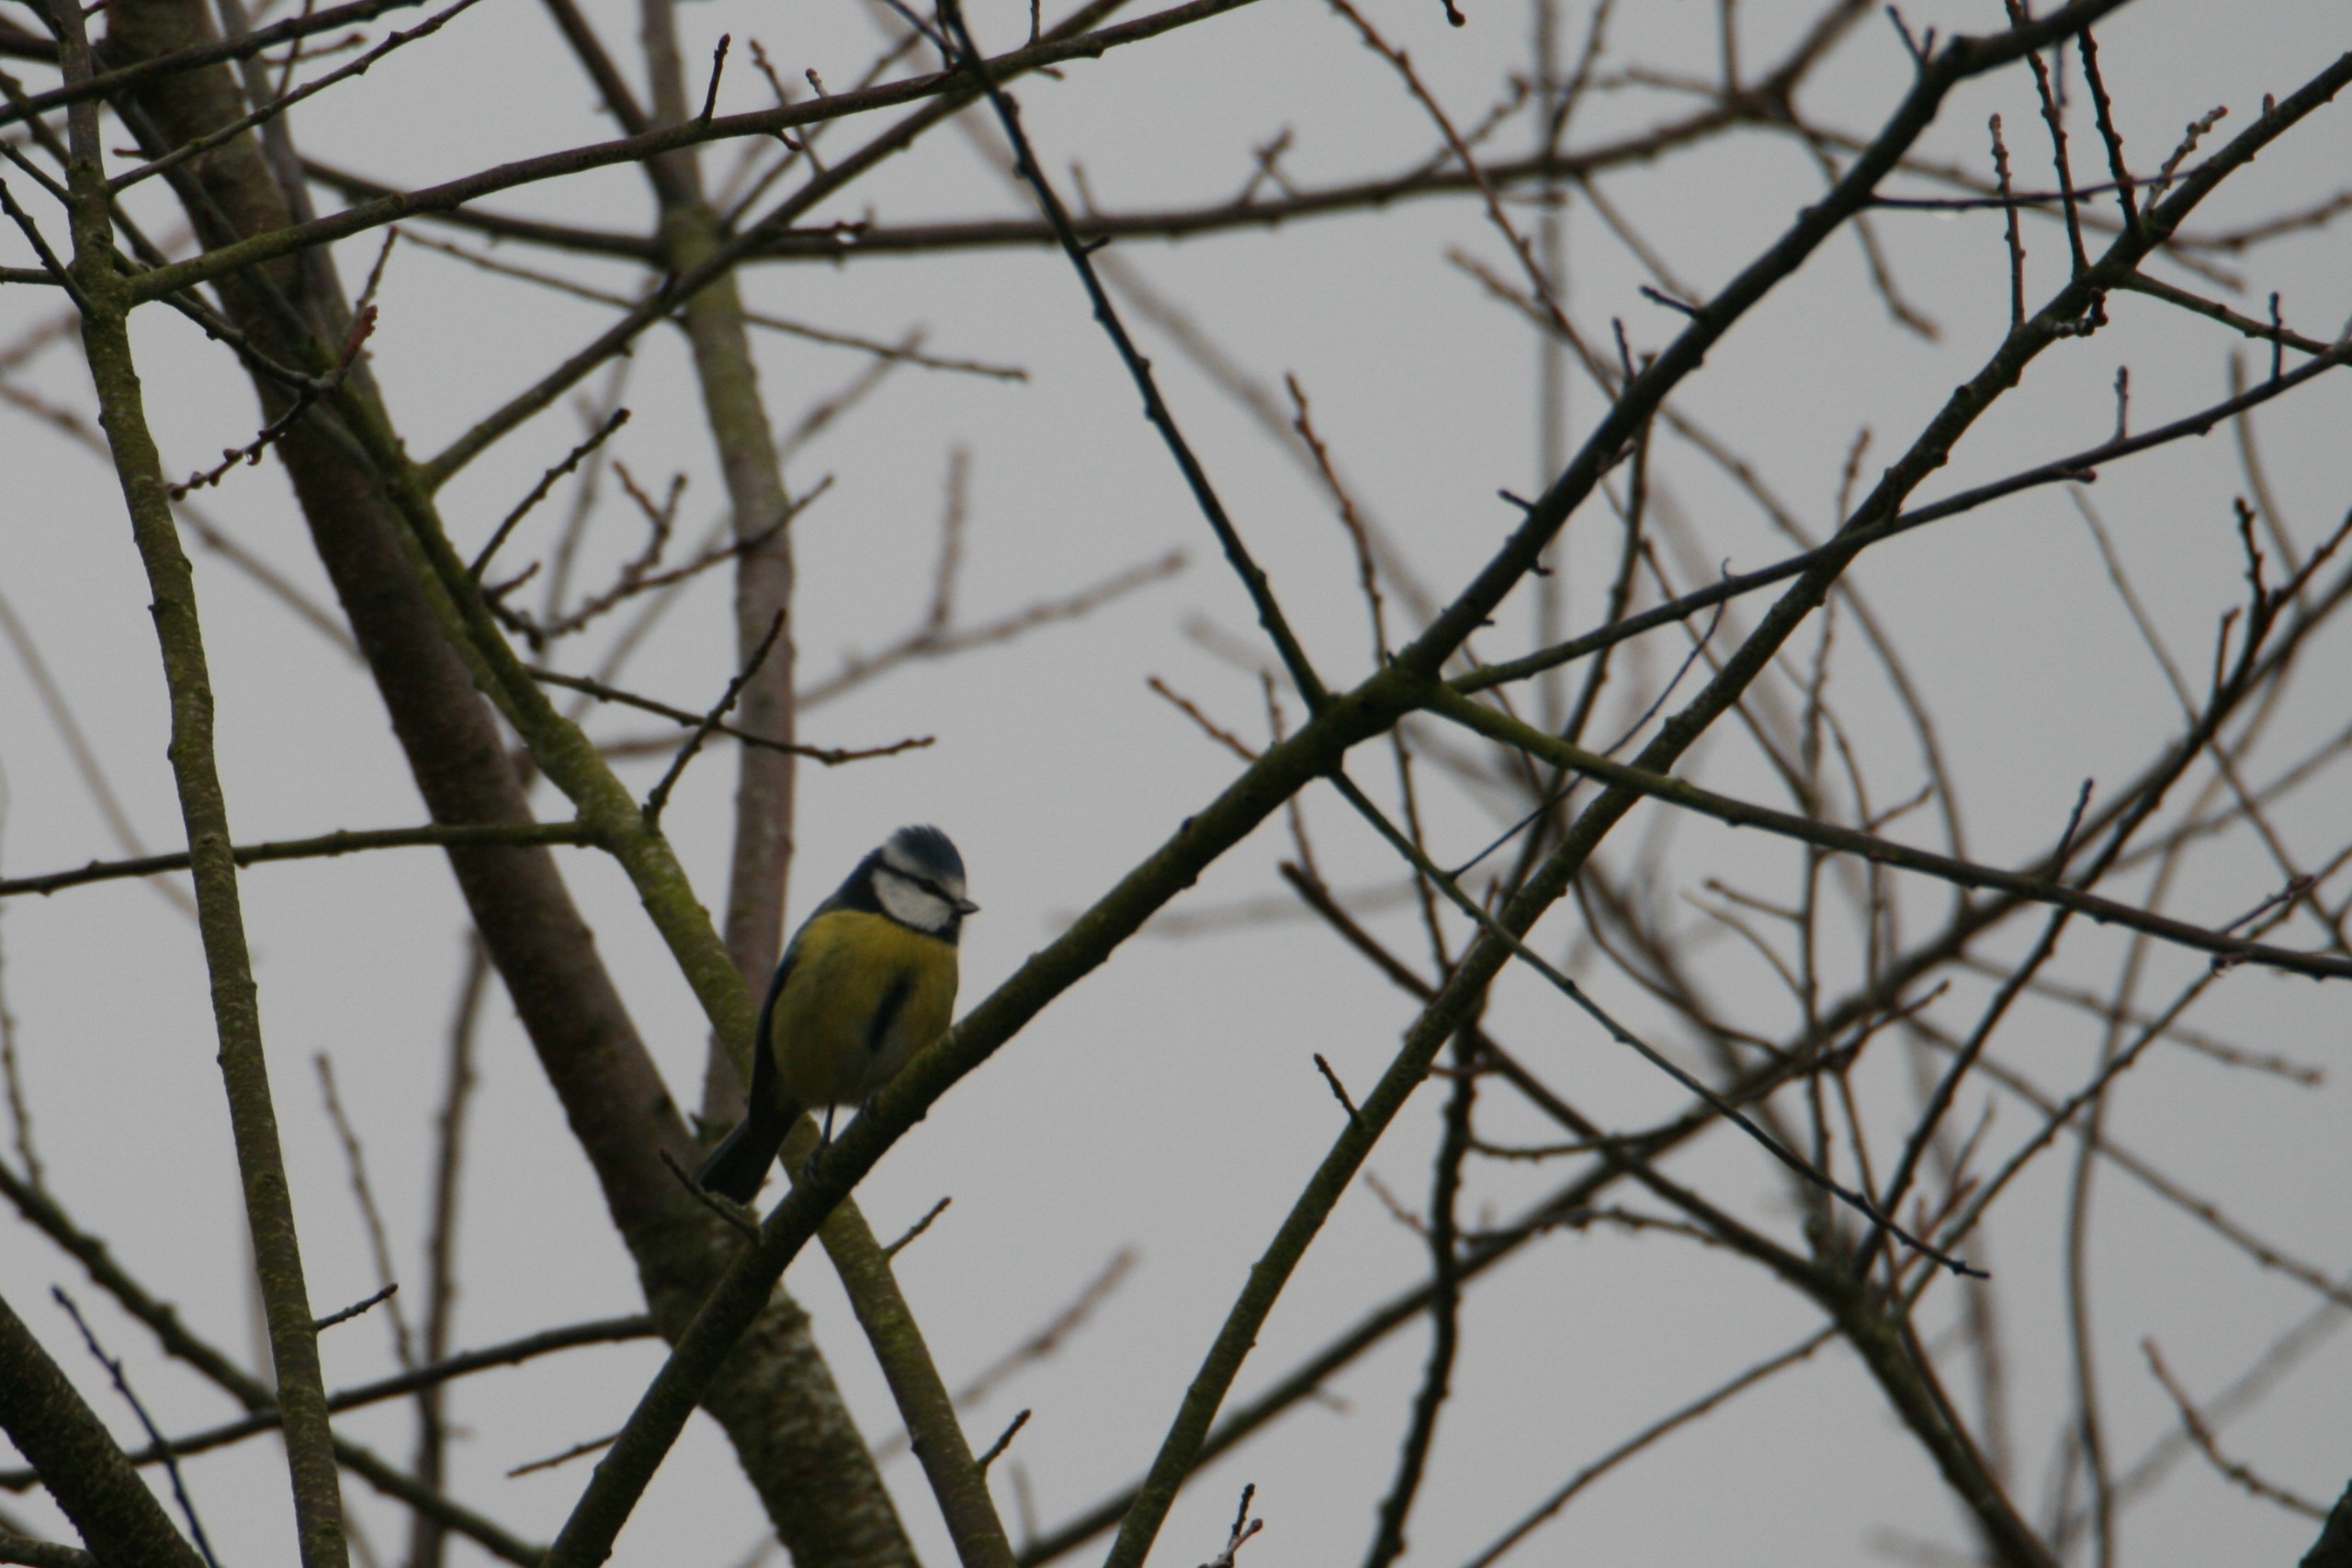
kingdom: Animalia
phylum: Chordata
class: Aves
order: Passeriformes
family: Paridae
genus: Cyanistes
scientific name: Cyanistes caeruleus
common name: Blåmejse
